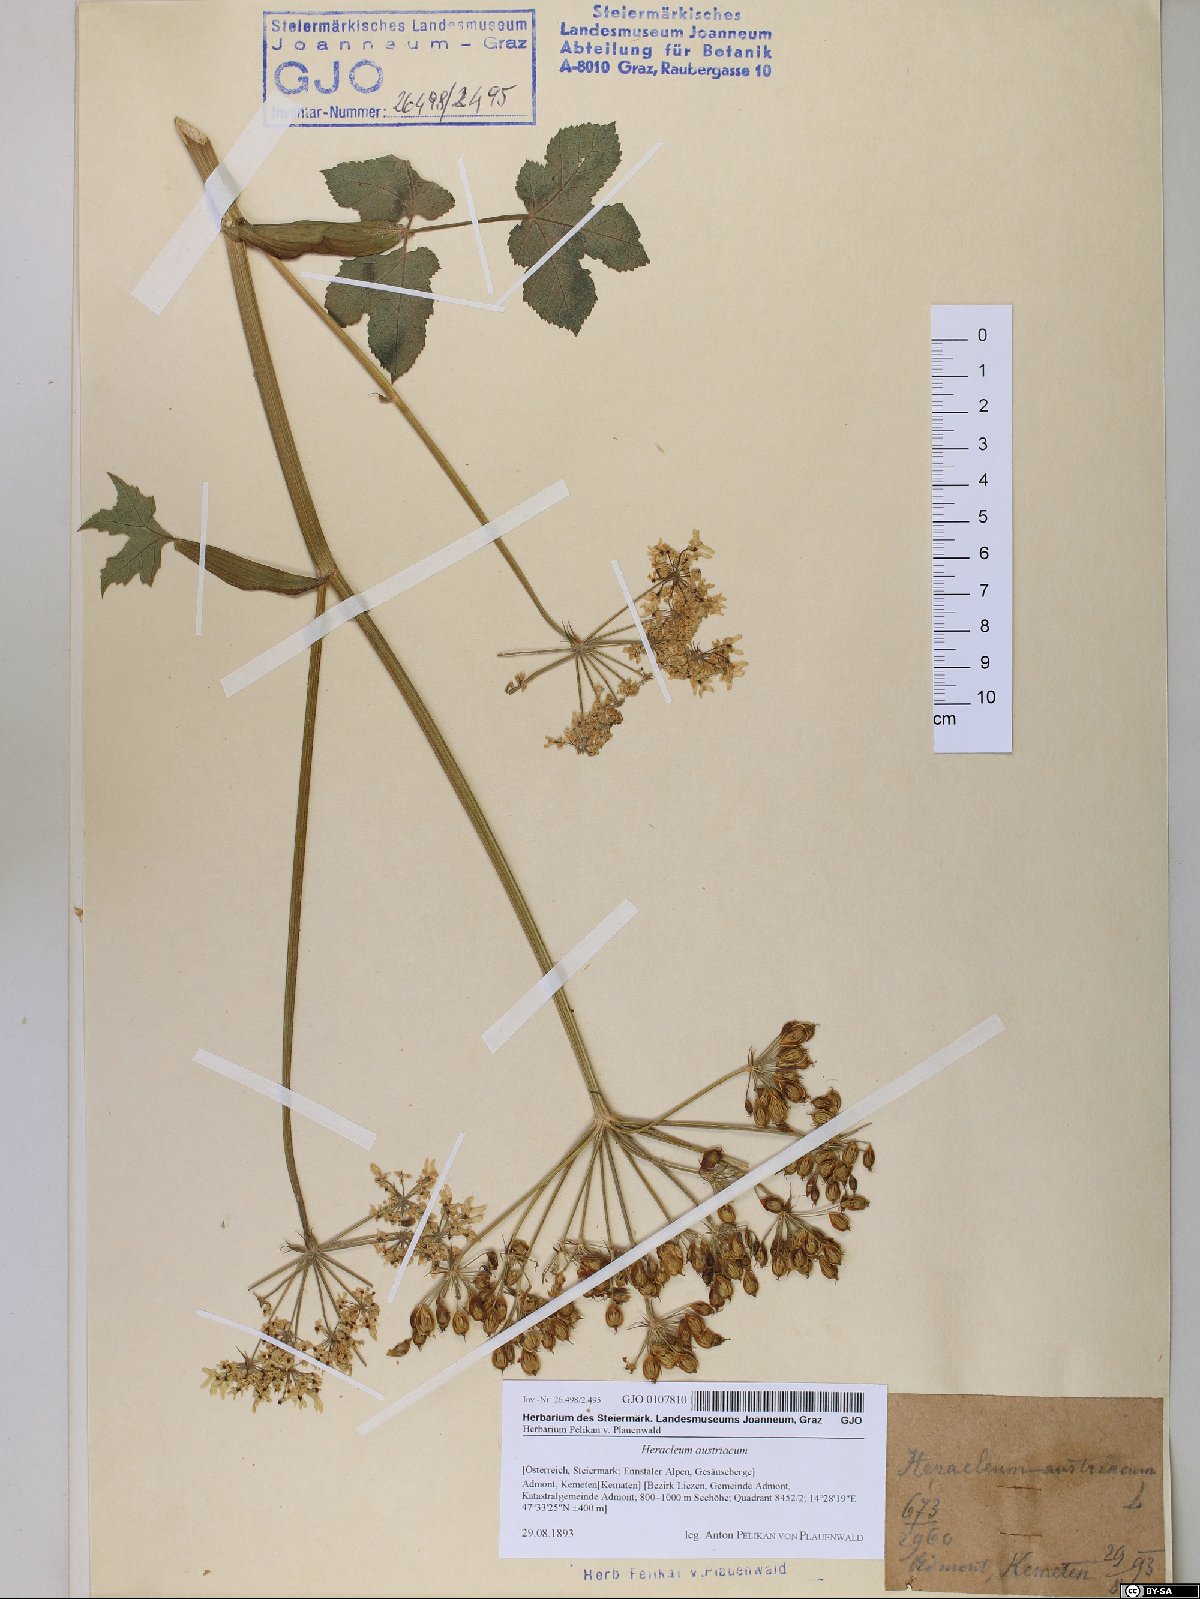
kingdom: Plantae
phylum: Tracheophyta
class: Magnoliopsida
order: Apiales
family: Apiaceae
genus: Heracleum
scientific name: Heracleum austriacum
